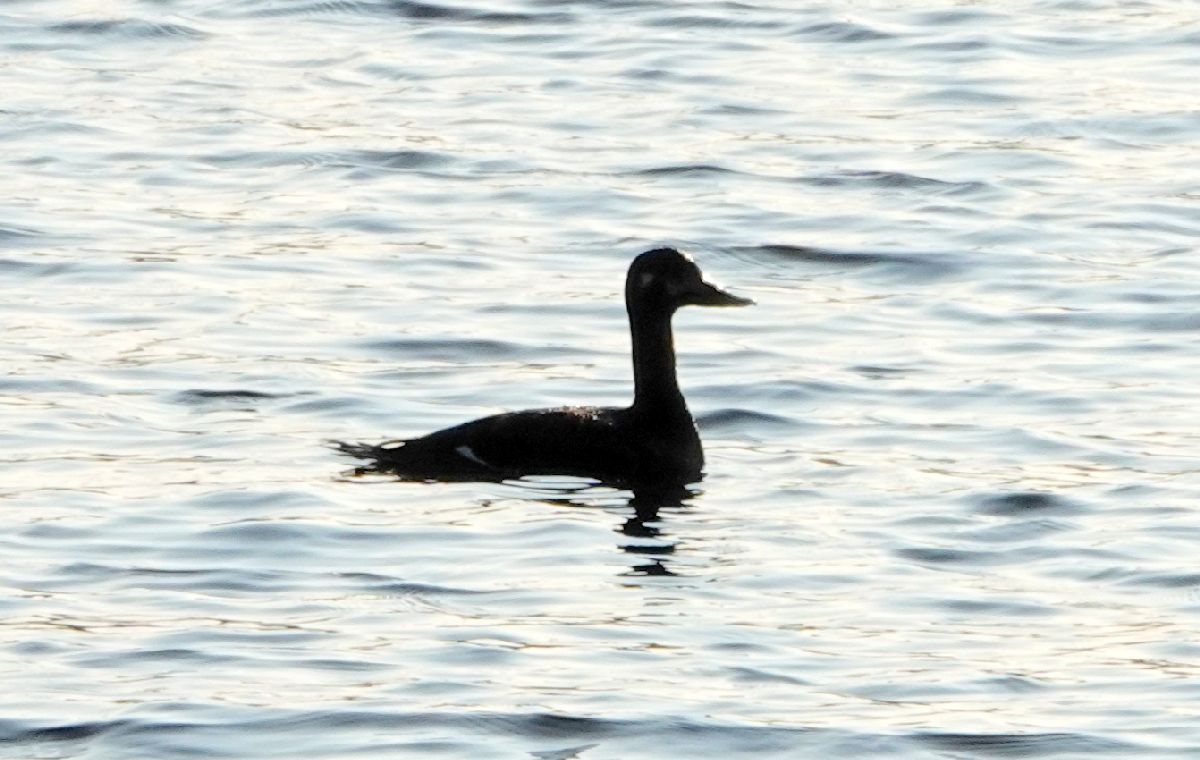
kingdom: Animalia
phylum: Chordata
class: Aves
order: Anseriformes
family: Anatidae
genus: Melanitta
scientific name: Melanitta fusca
